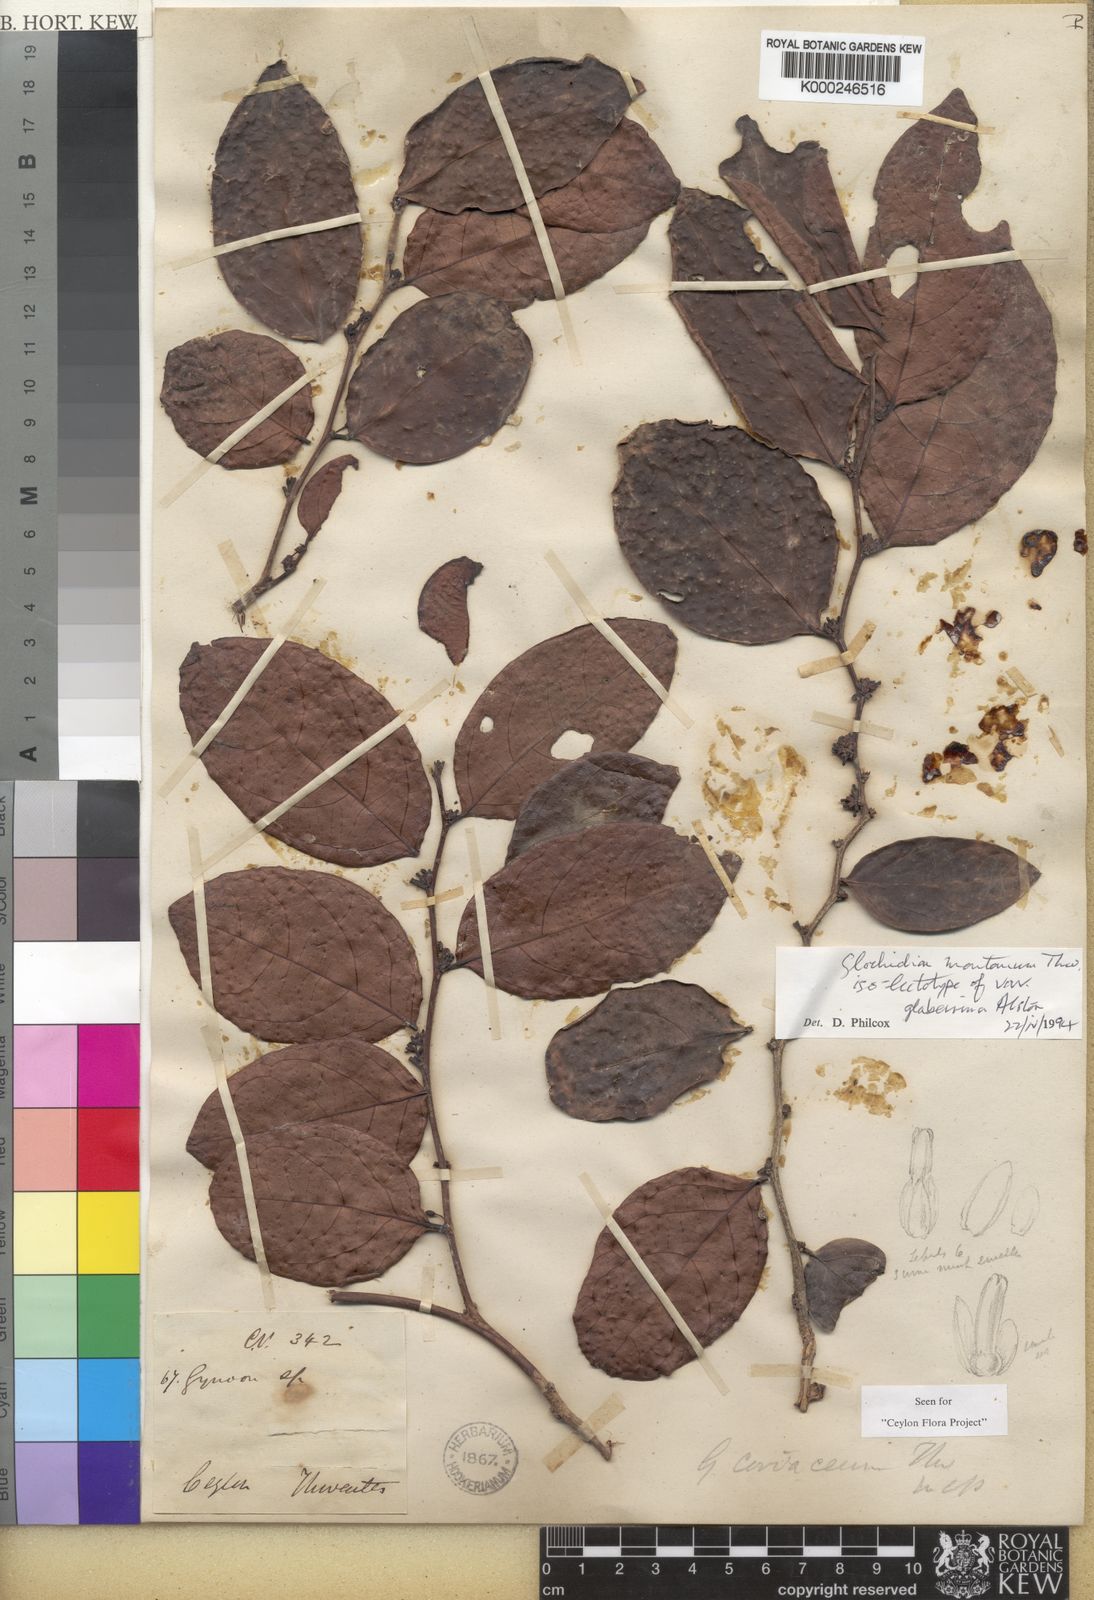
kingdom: Plantae
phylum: Tracheophyta
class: Magnoliopsida
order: Malpighiales
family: Phyllanthaceae
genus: Glochidion
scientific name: Glochidion moonii
